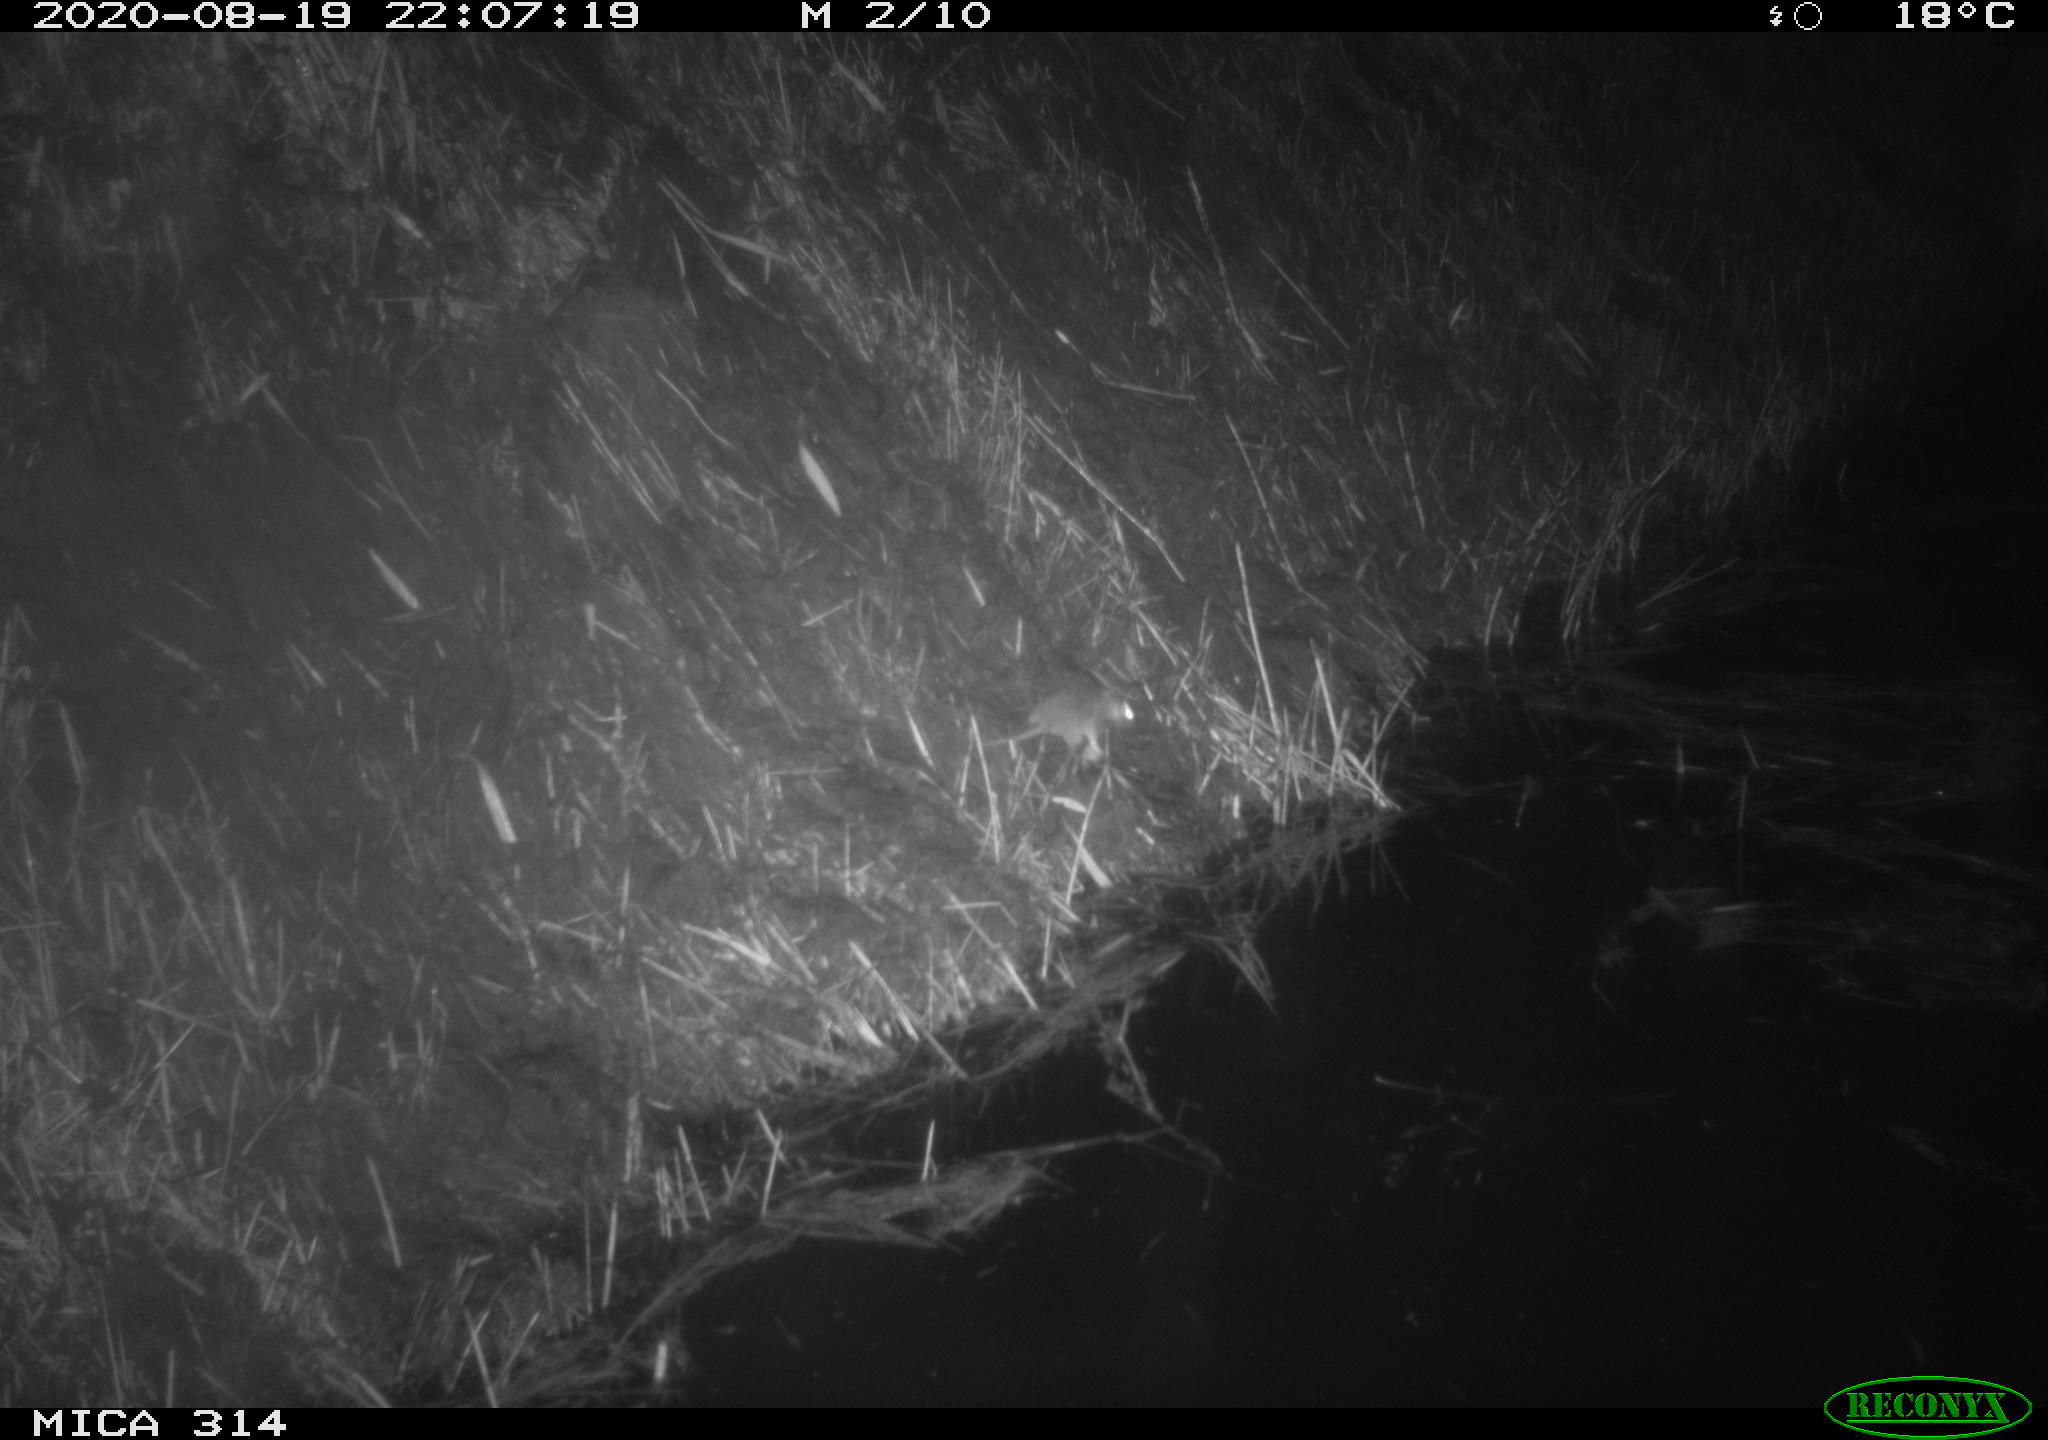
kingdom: Animalia
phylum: Chordata
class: Mammalia
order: Rodentia
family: Muridae
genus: Rattus
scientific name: Rattus norvegicus
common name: Brown rat
